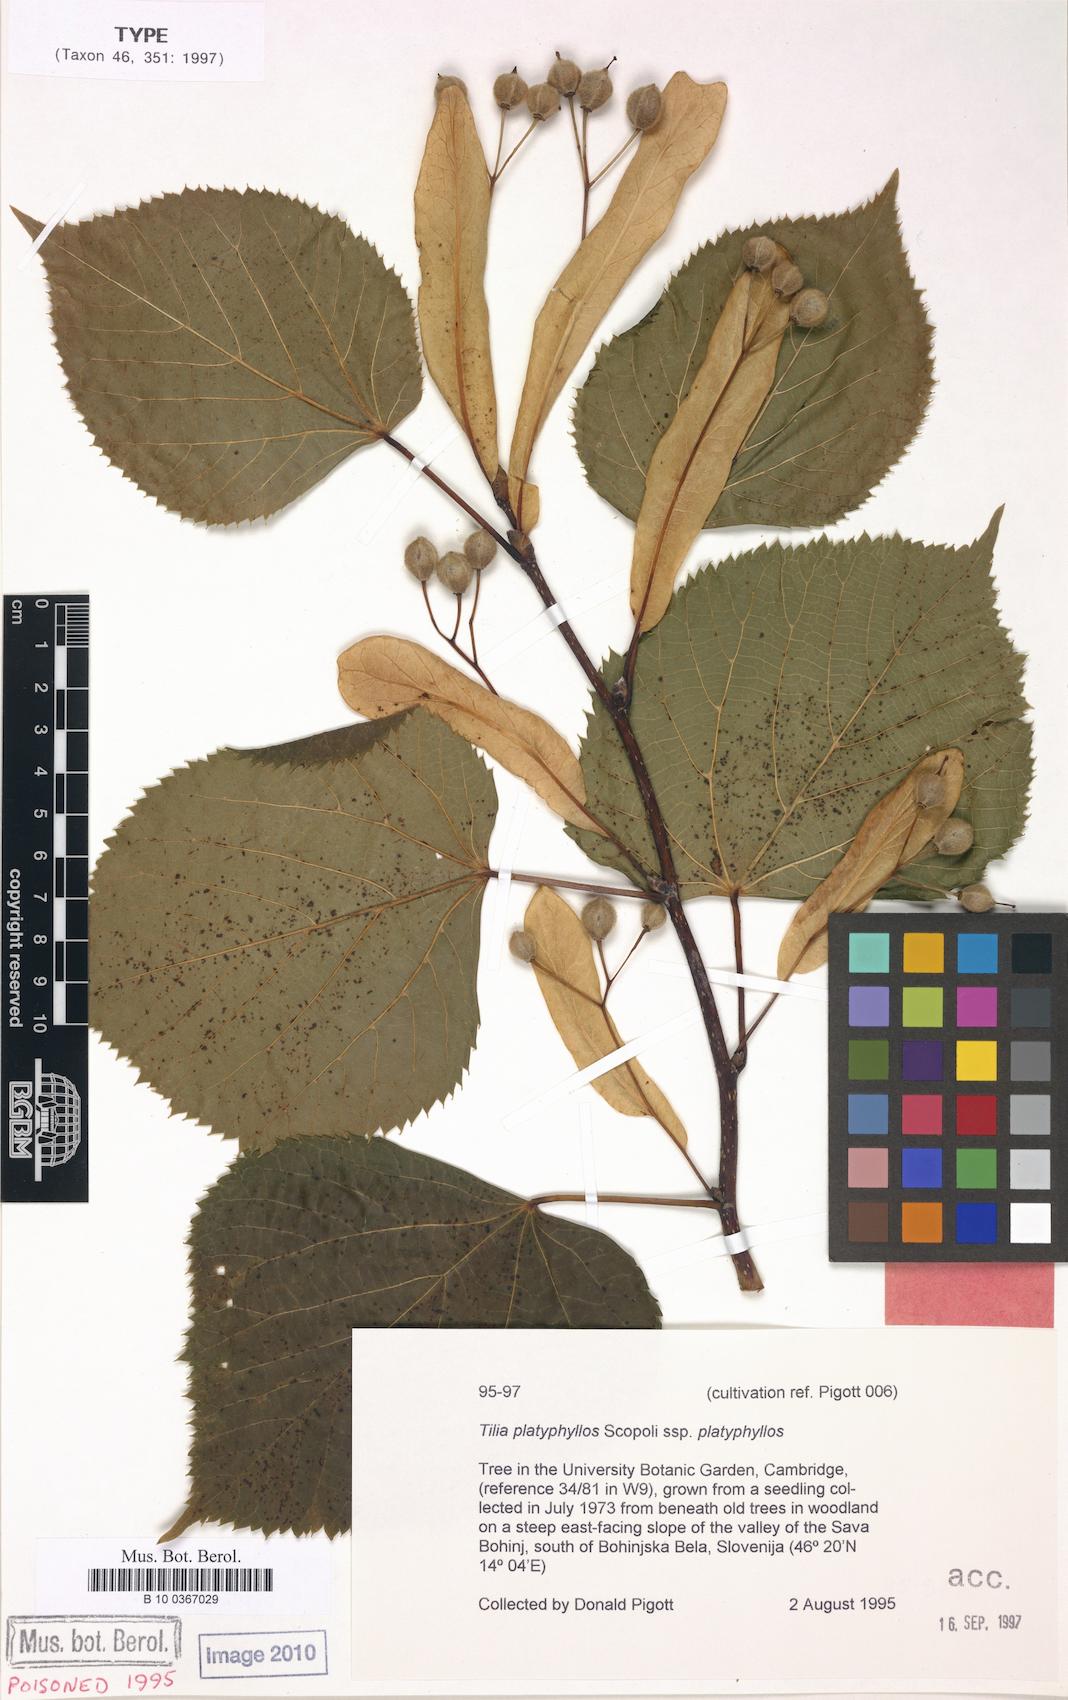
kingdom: Plantae
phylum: Tracheophyta
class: Magnoliopsida
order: Malvales
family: Malvaceae
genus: Tilia
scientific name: Tilia platyphyllos
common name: Large-leaved lime
